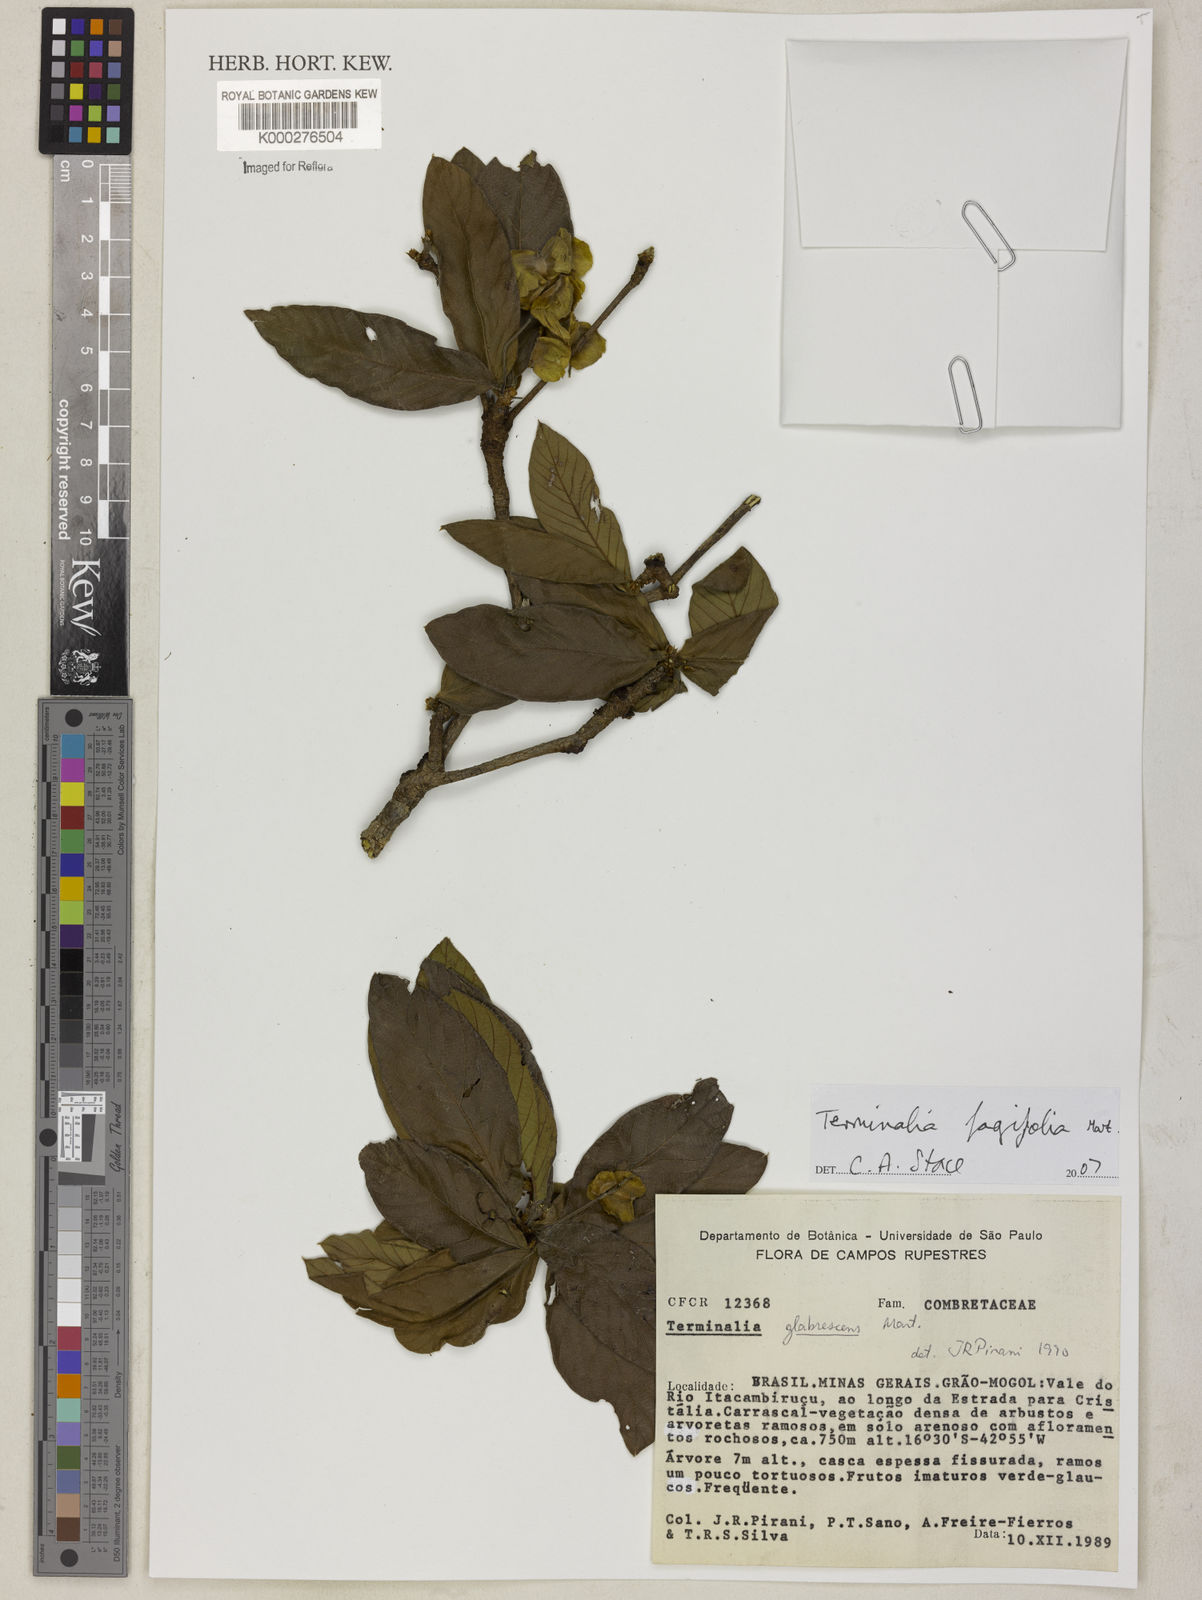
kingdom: Plantae
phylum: Tracheophyta
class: Magnoliopsida
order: Myrtales
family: Combretaceae
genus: Terminalia
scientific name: Terminalia fagifolia
